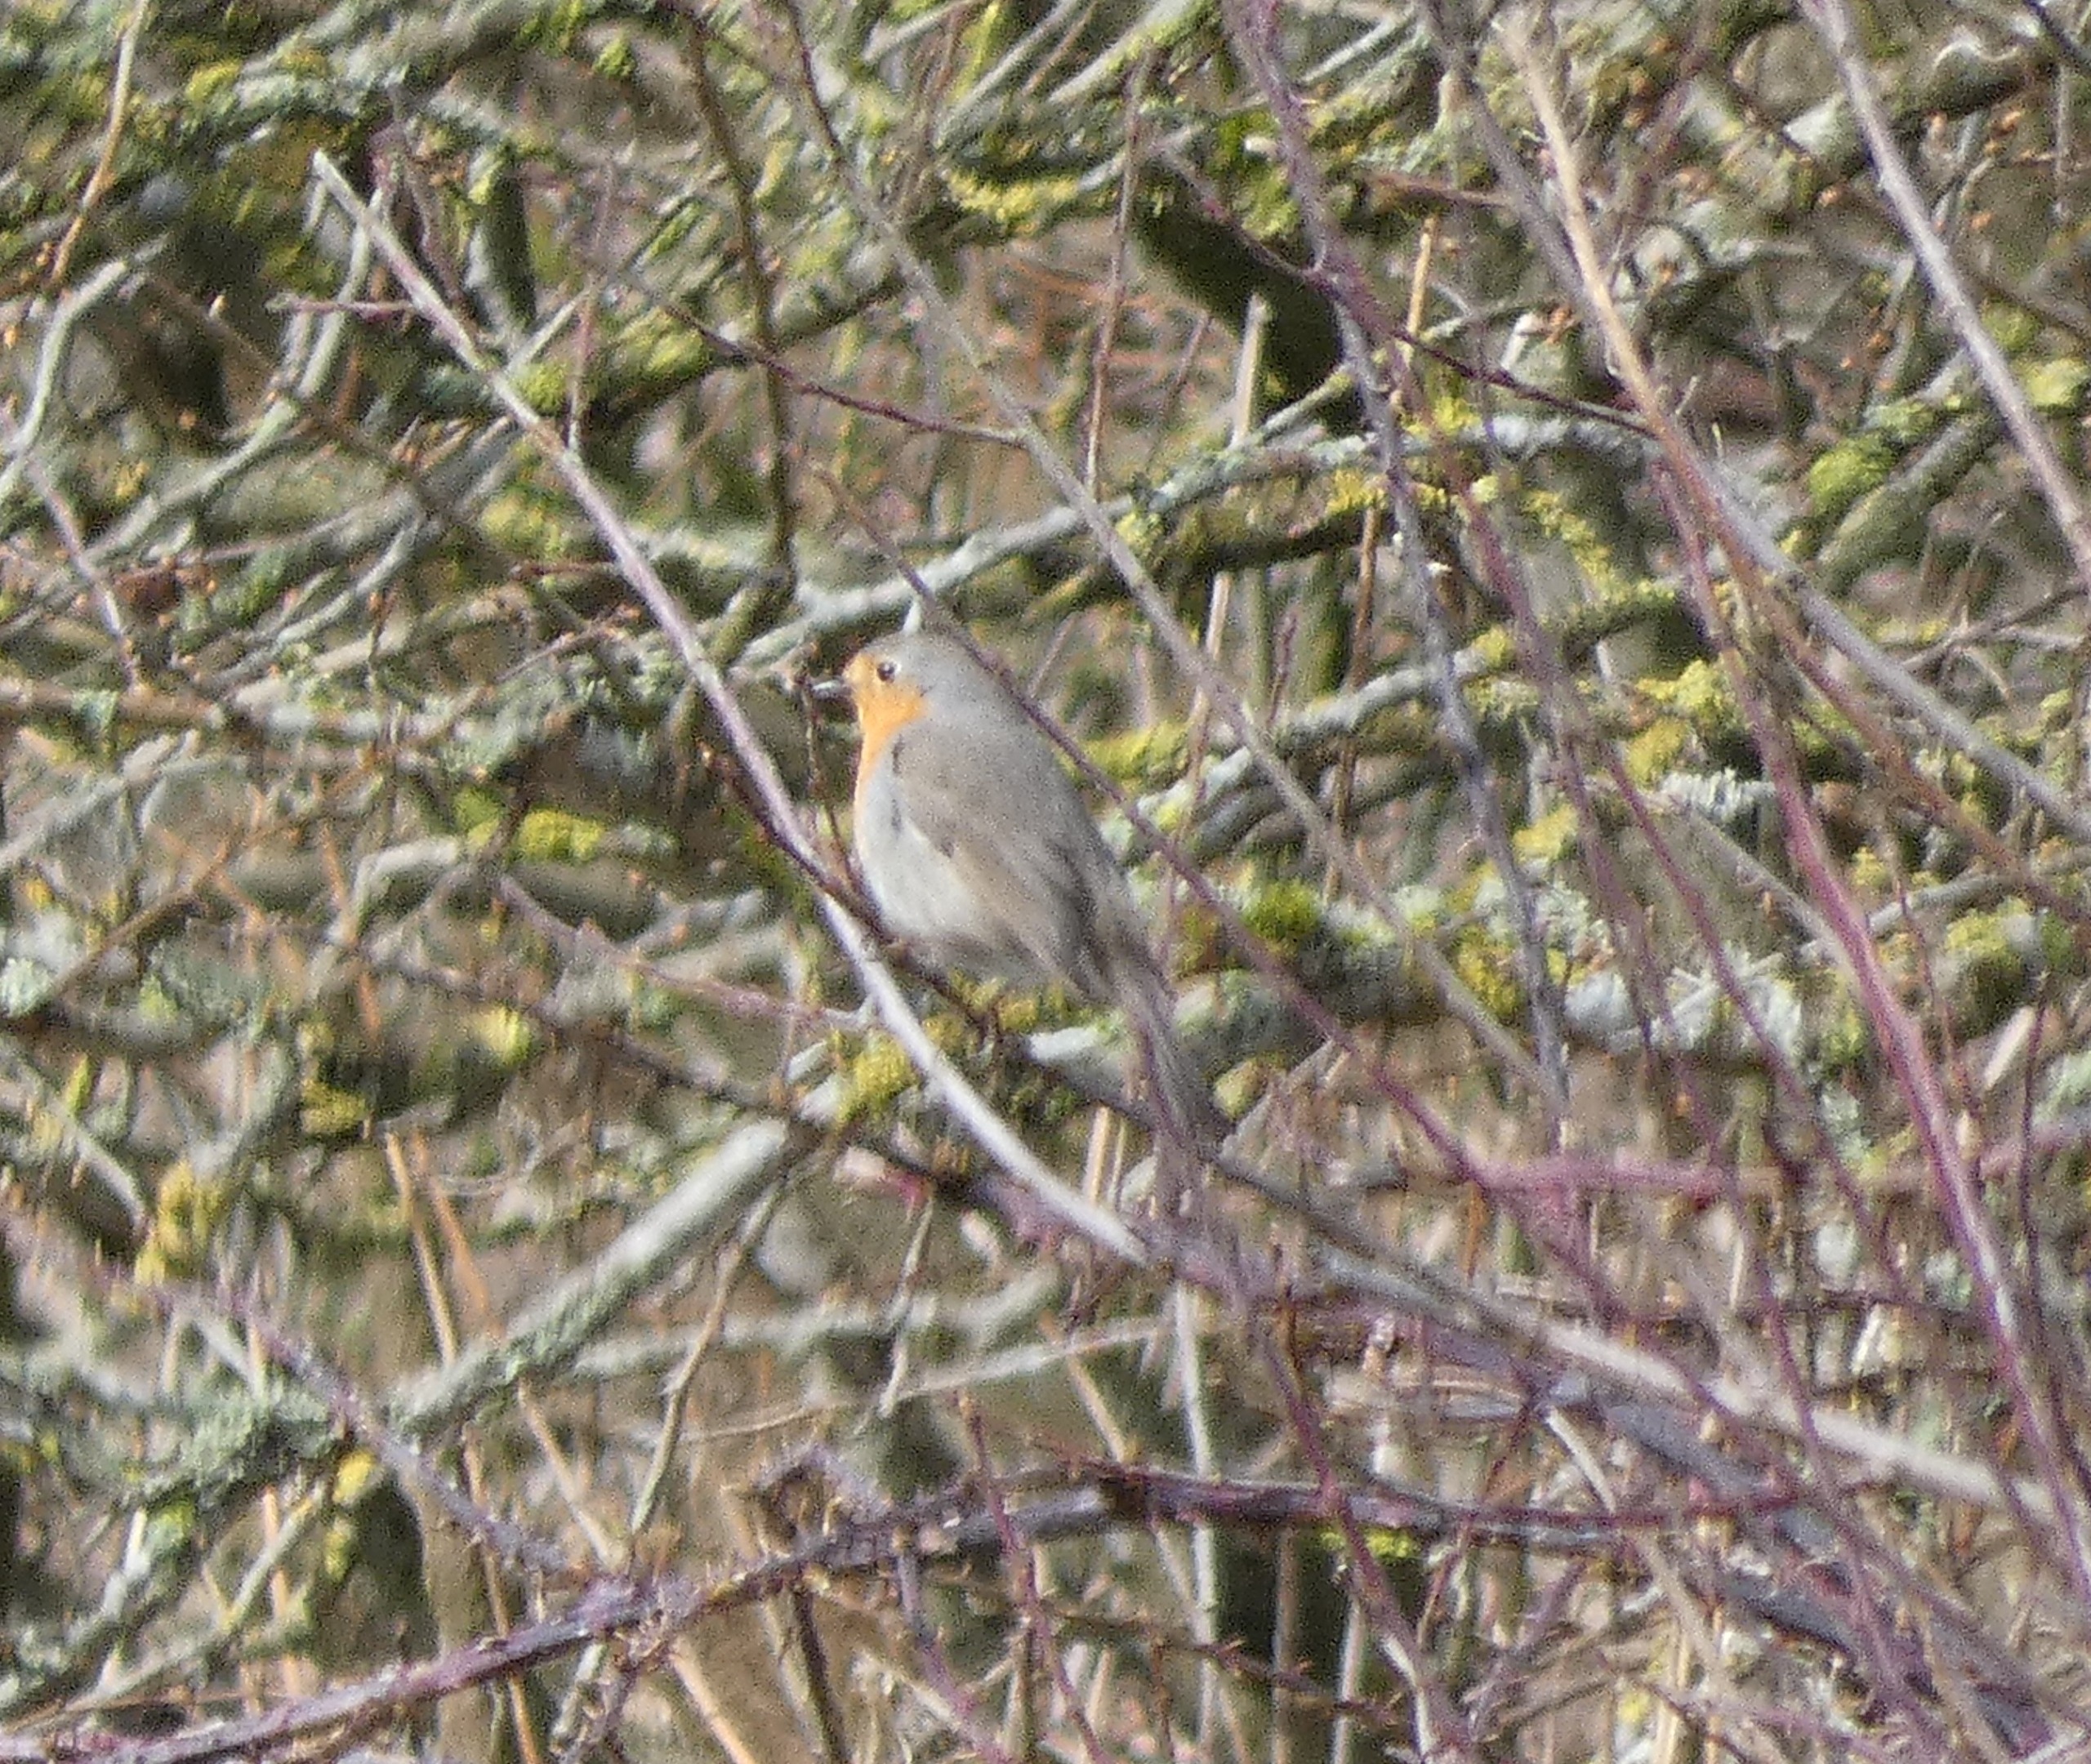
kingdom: Animalia
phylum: Chordata
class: Aves
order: Passeriformes
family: Muscicapidae
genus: Erithacus
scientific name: Erithacus rubecula
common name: Rødhals/rødkælk
